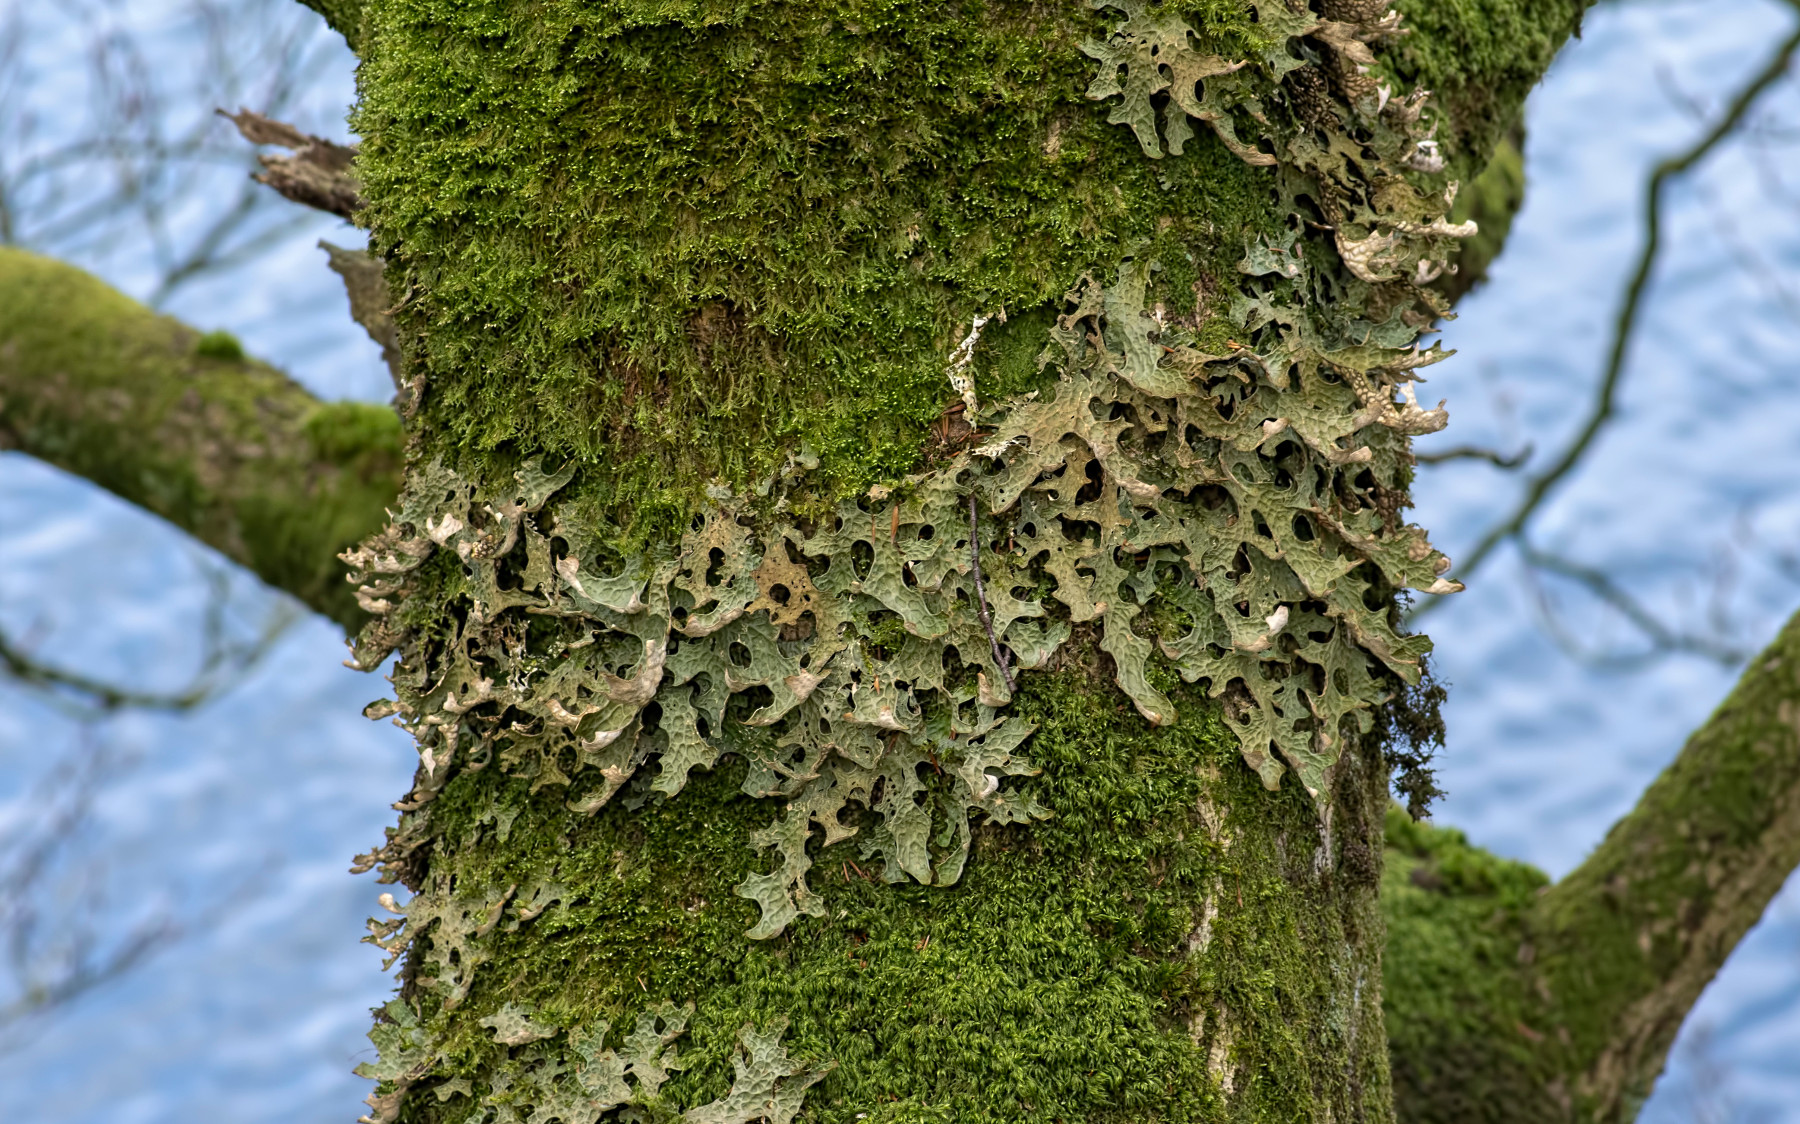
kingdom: Fungi
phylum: Ascomycota
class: Lecanoromycetes
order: Peltigerales
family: Lobariaceae
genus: Lobaria
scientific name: Lobaria pulmonaria
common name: almindelig lungelav
